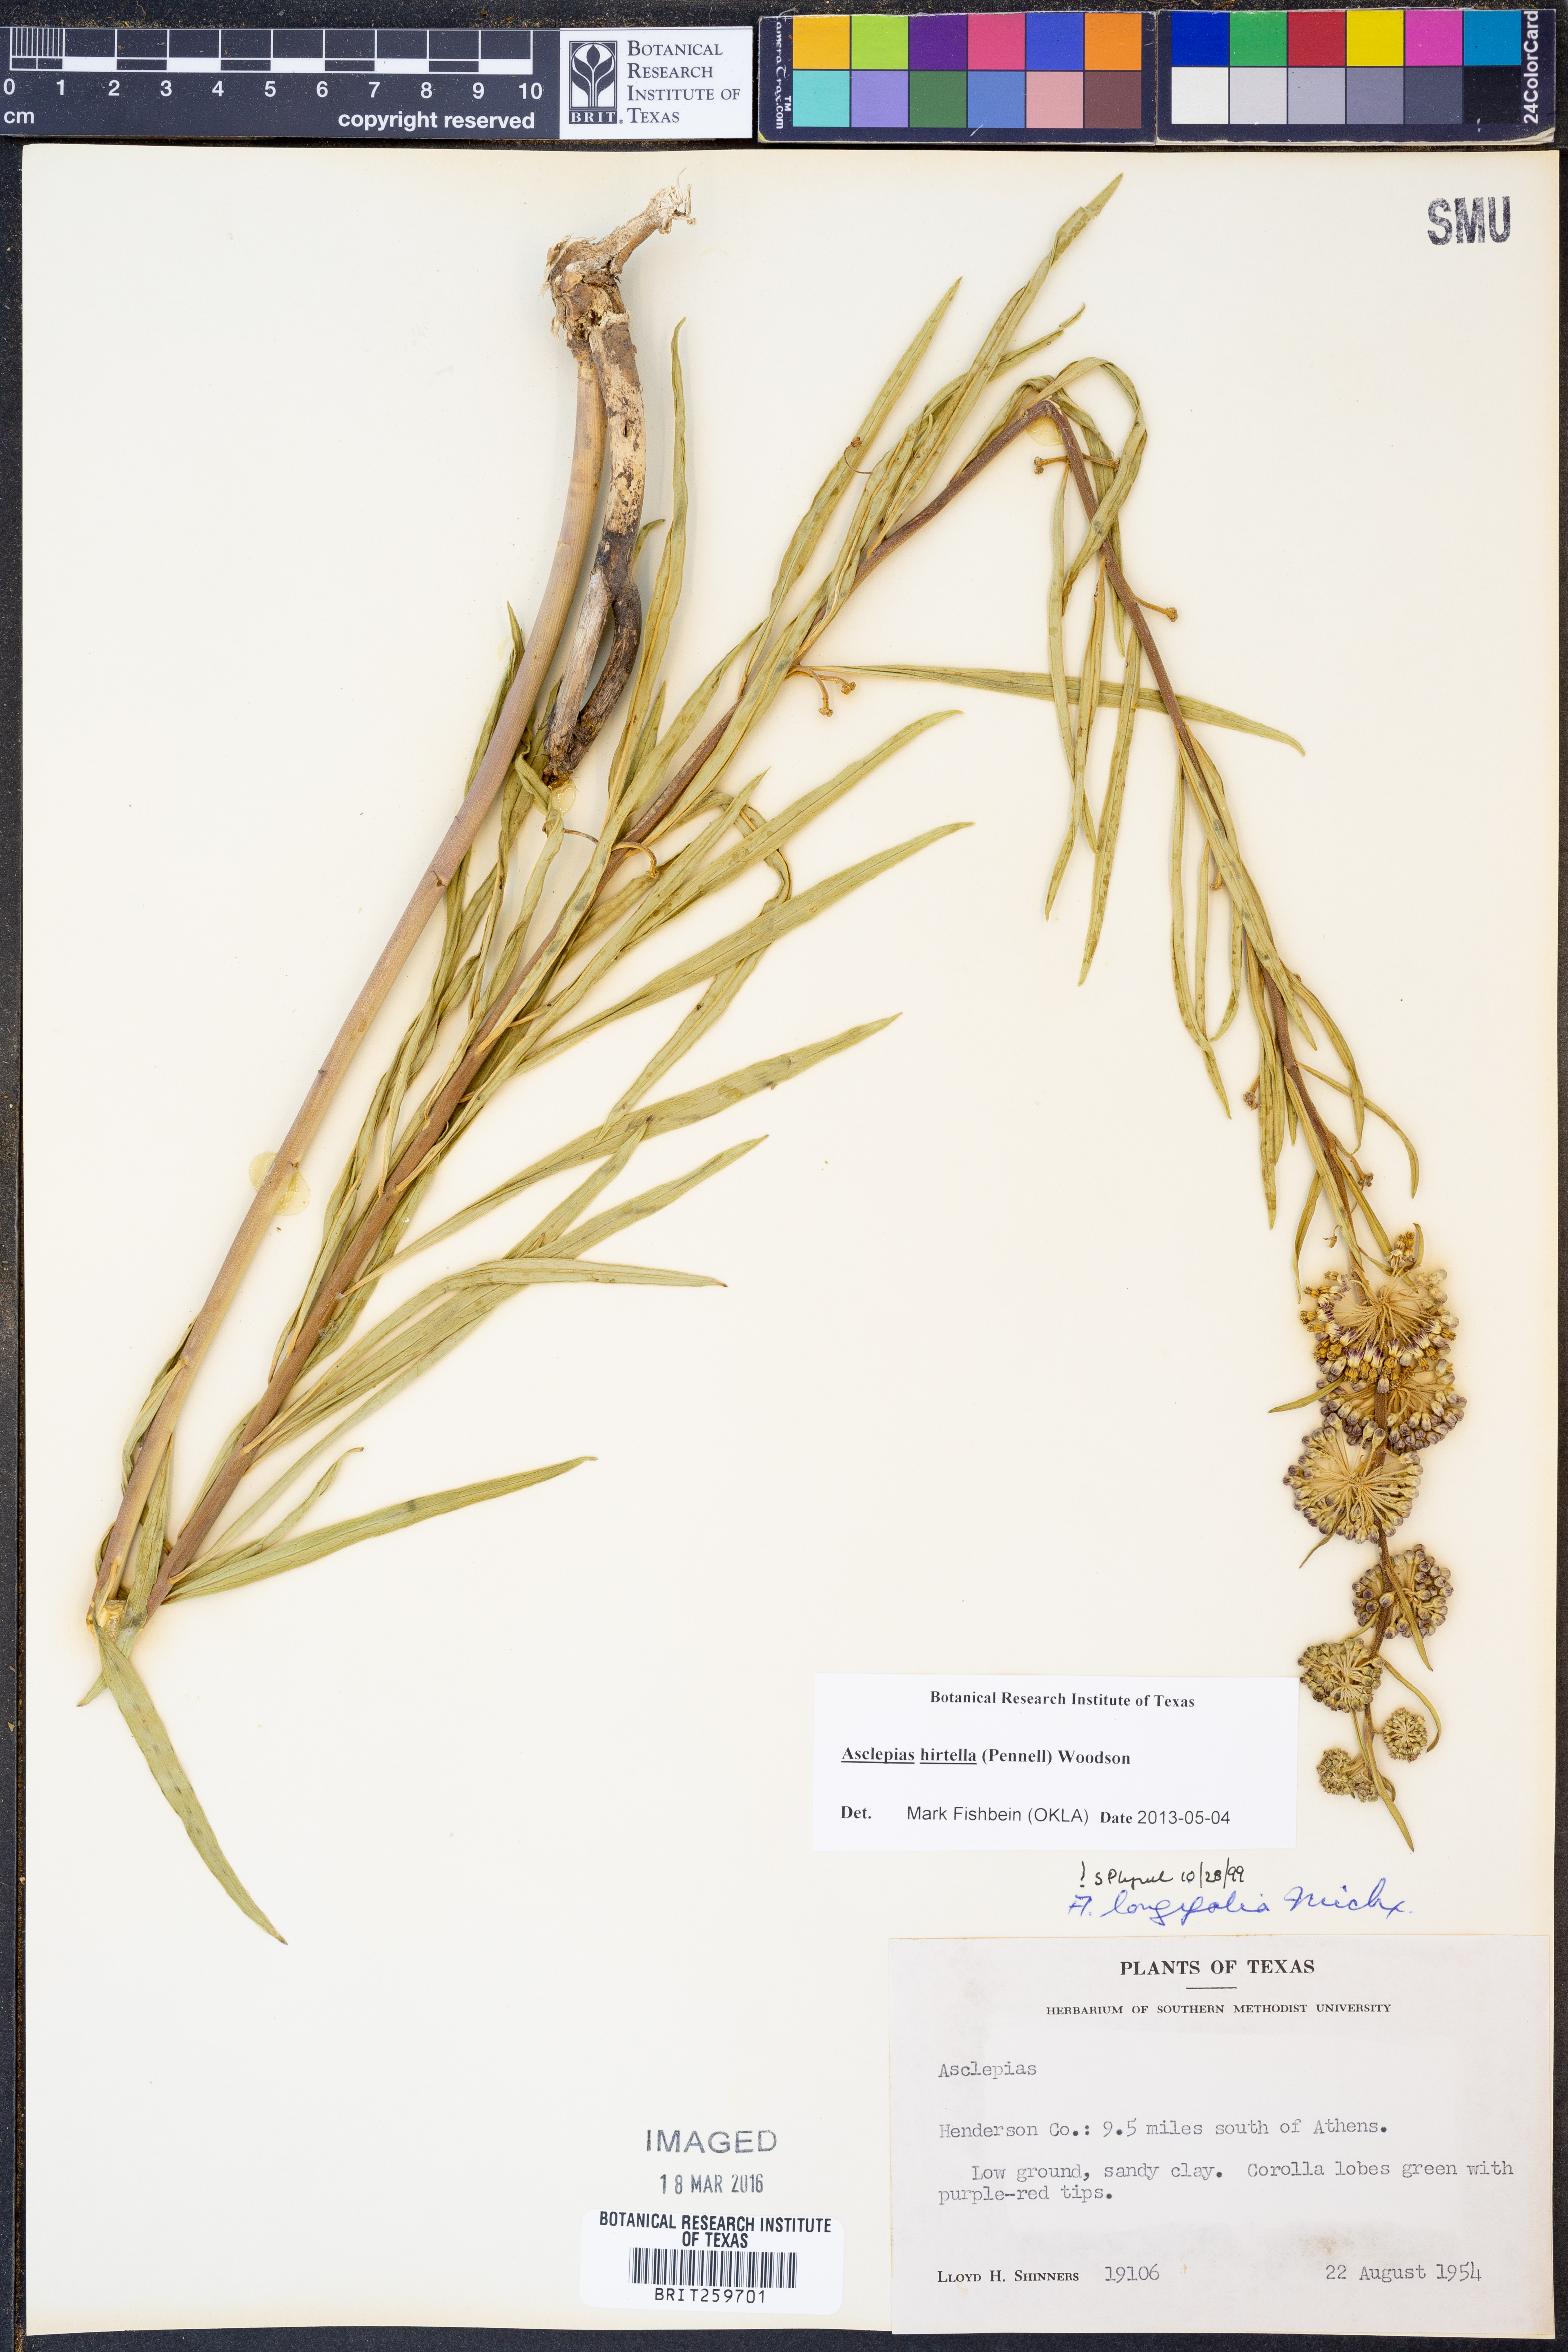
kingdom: Plantae
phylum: Tracheophyta
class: Magnoliopsida
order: Gentianales
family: Apocynaceae
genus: Asclepias
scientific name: Asclepias hirtella
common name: Prairie milkweed
